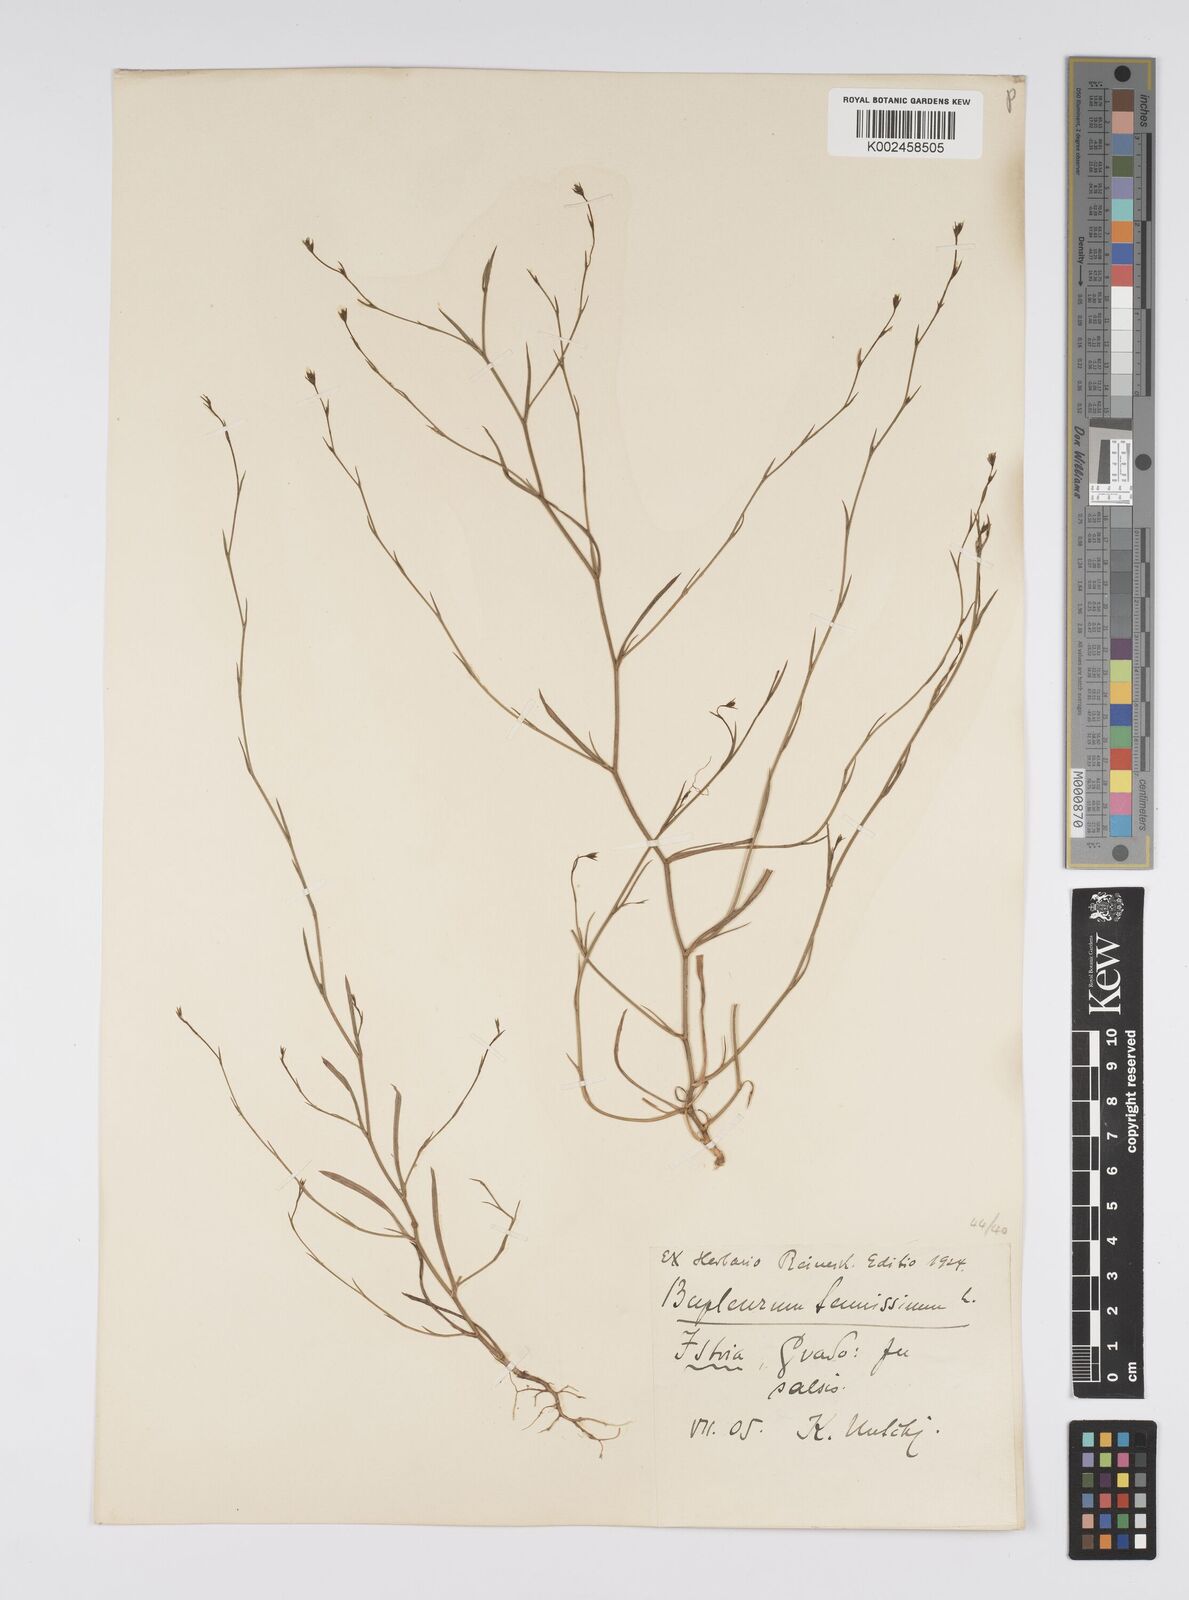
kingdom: Plantae
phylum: Tracheophyta
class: Magnoliopsida
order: Apiales
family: Apiaceae
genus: Bupleurum
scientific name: Bupleurum tenuissimum
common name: Slender hare's-ear
